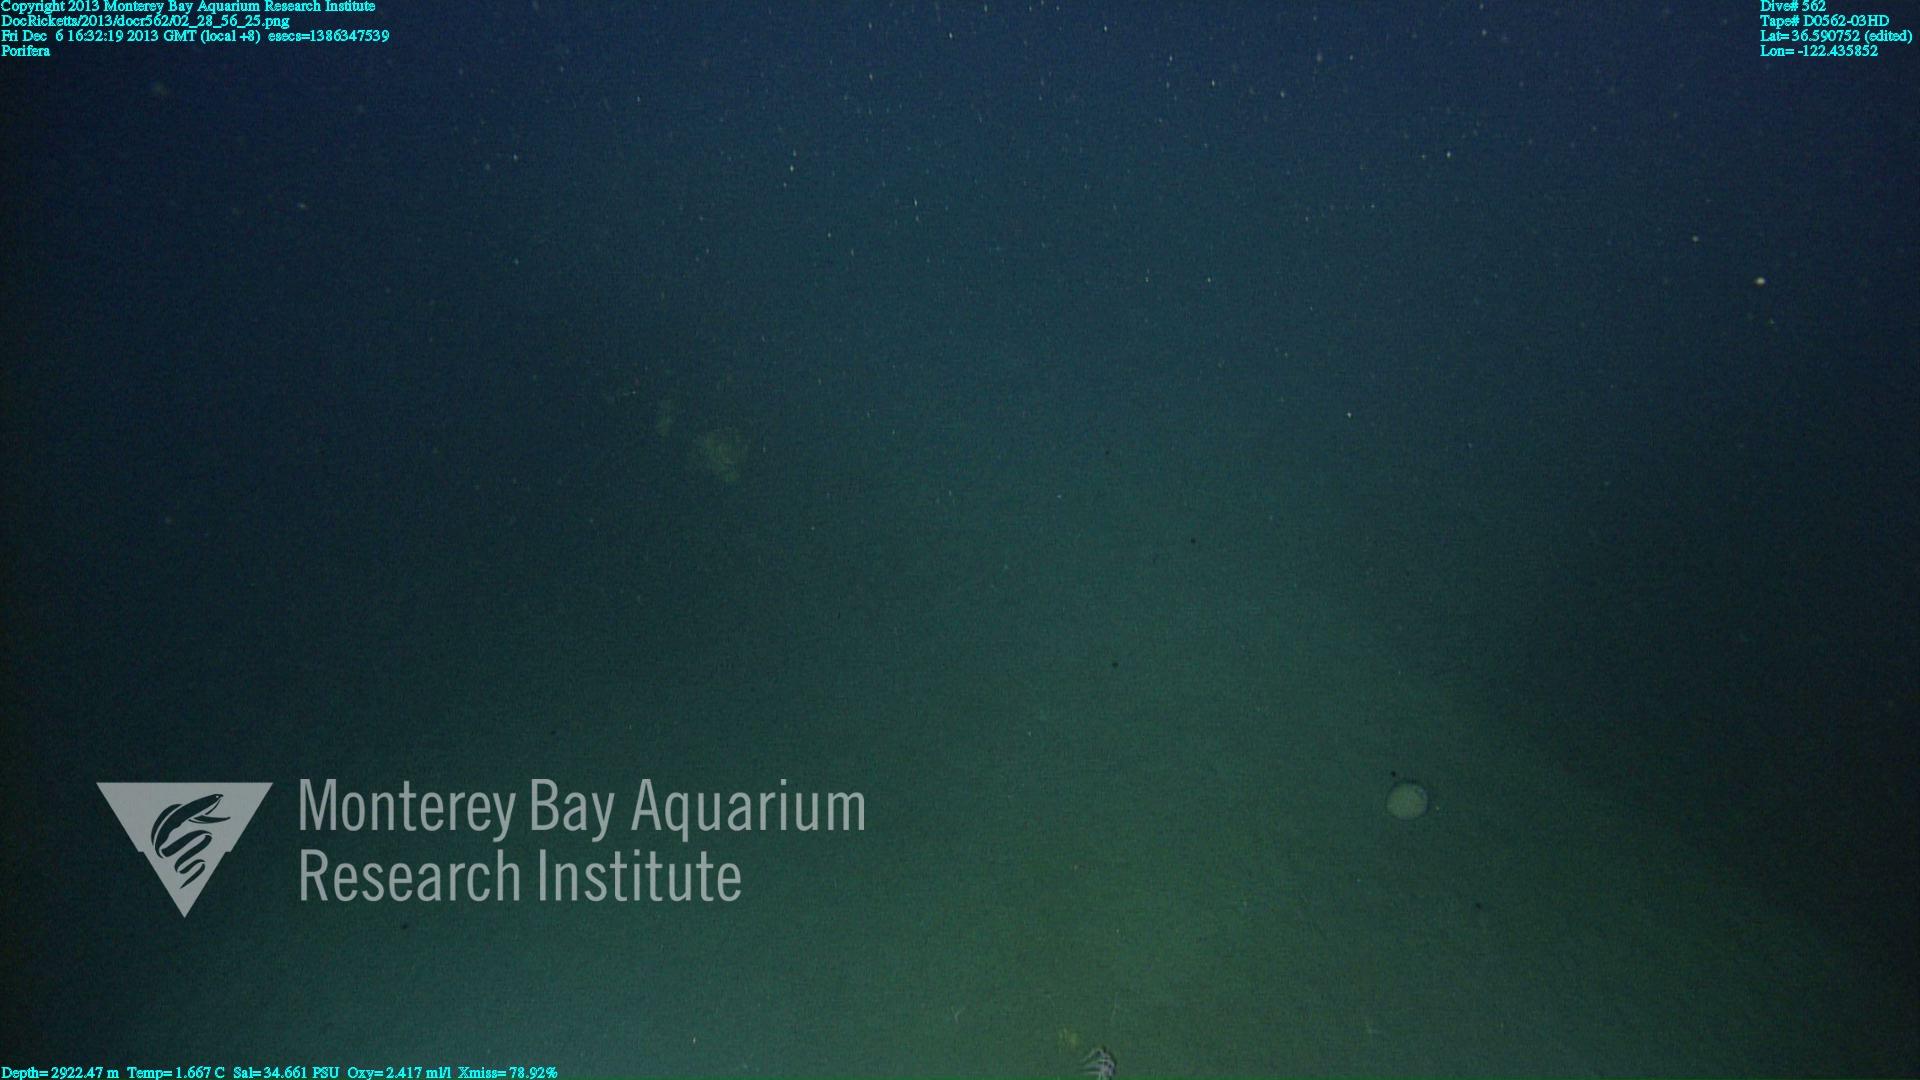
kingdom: Animalia
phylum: Porifera
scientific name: Porifera
